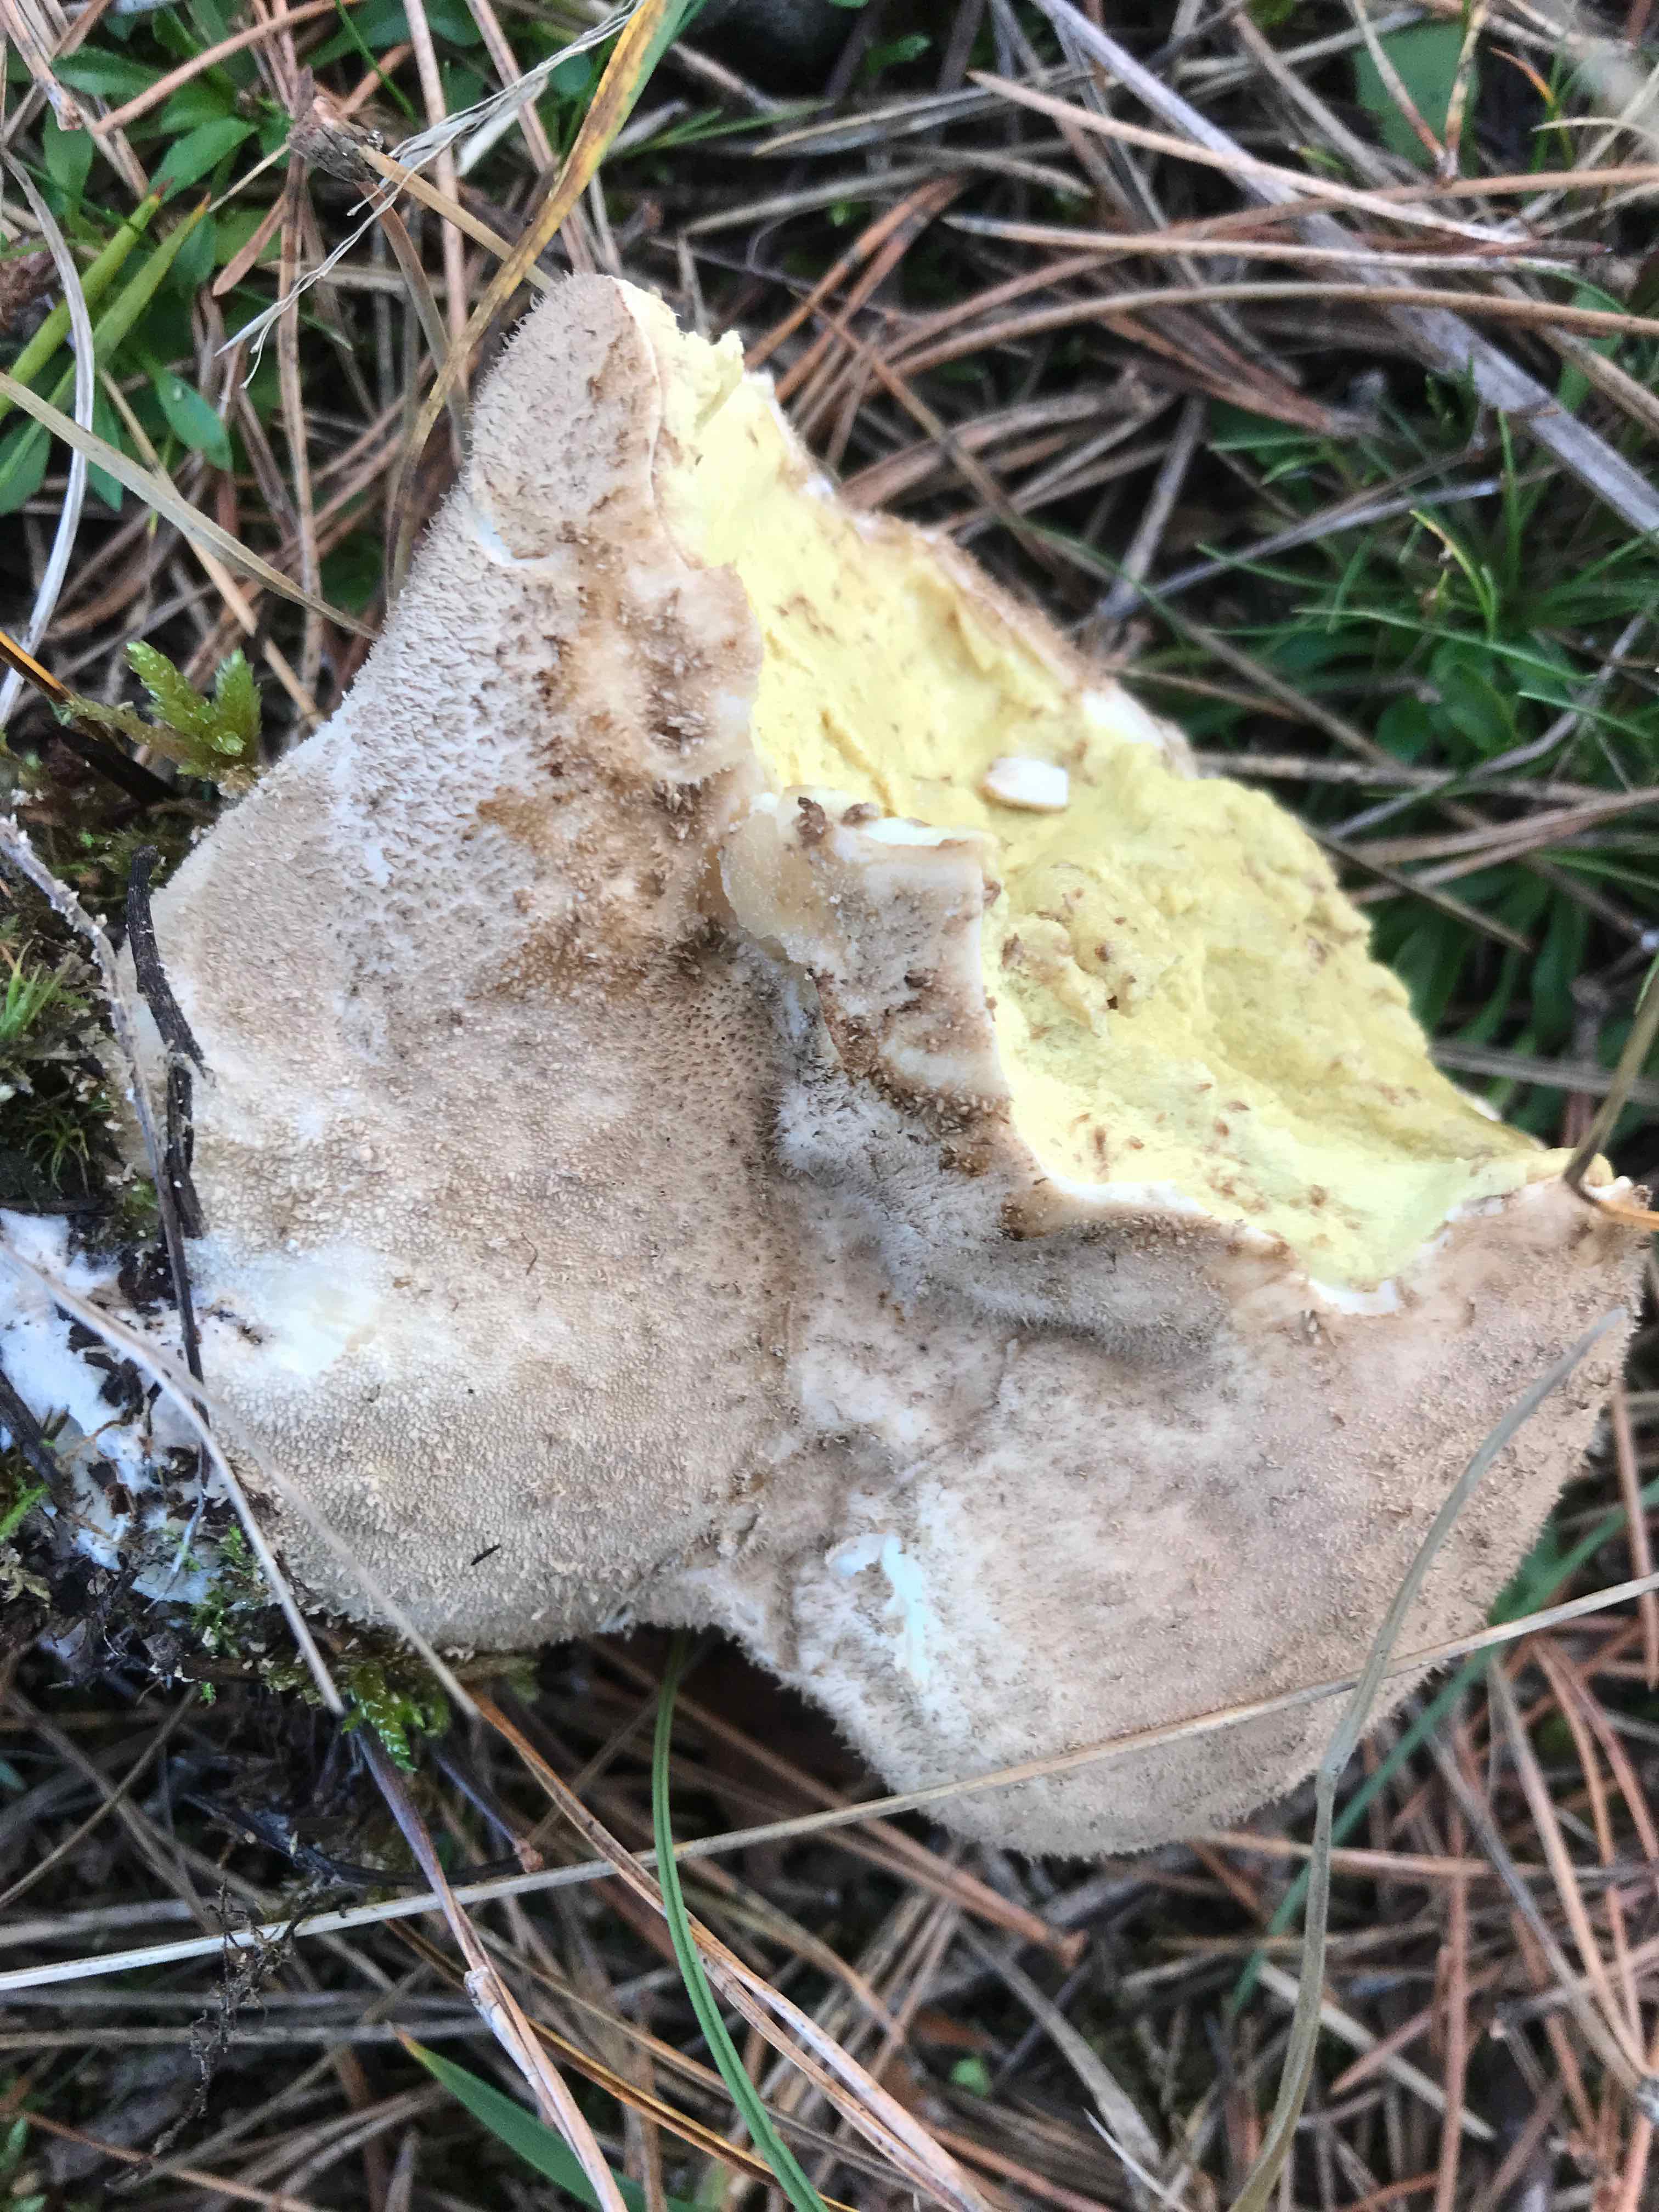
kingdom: Fungi
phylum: Basidiomycota
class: Agaricomycetes
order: Agaricales
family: Lycoperdaceae
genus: Bovistella
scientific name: Bovistella utriformis
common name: skællet støvbold
